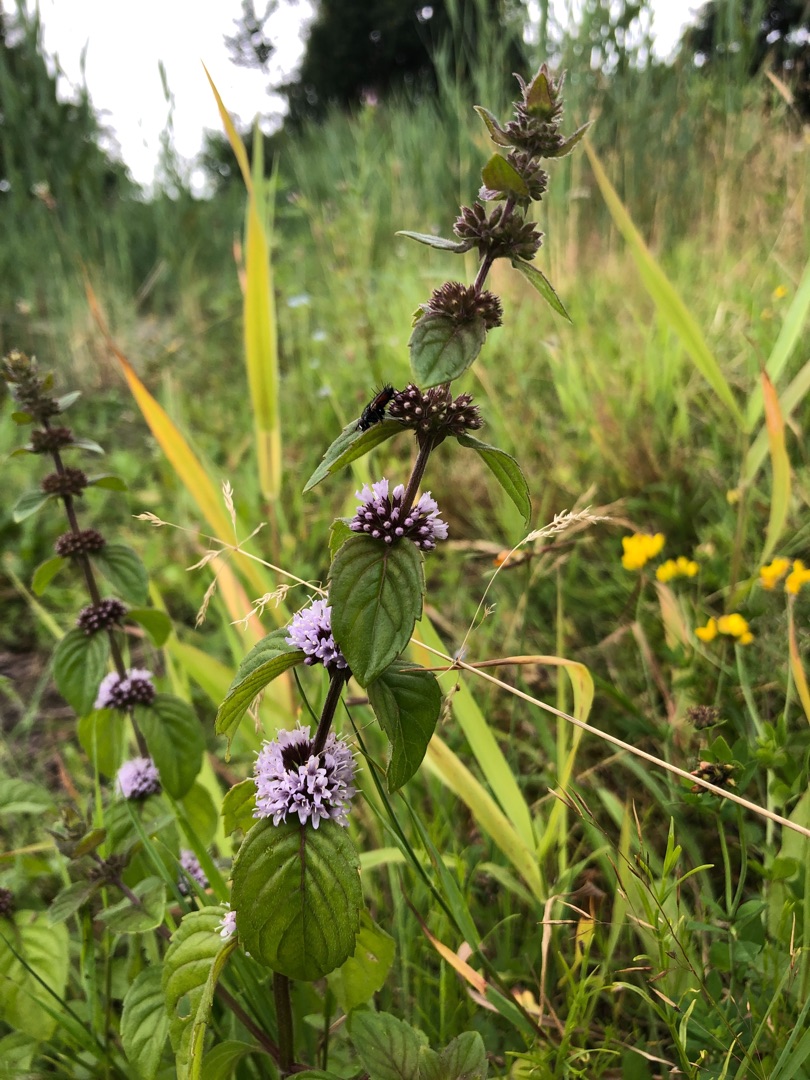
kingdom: Plantae
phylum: Tracheophyta
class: Magnoliopsida
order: Lamiales
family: Lamiaceae
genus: Mentha
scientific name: Mentha verticillata
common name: Krans-mynte
